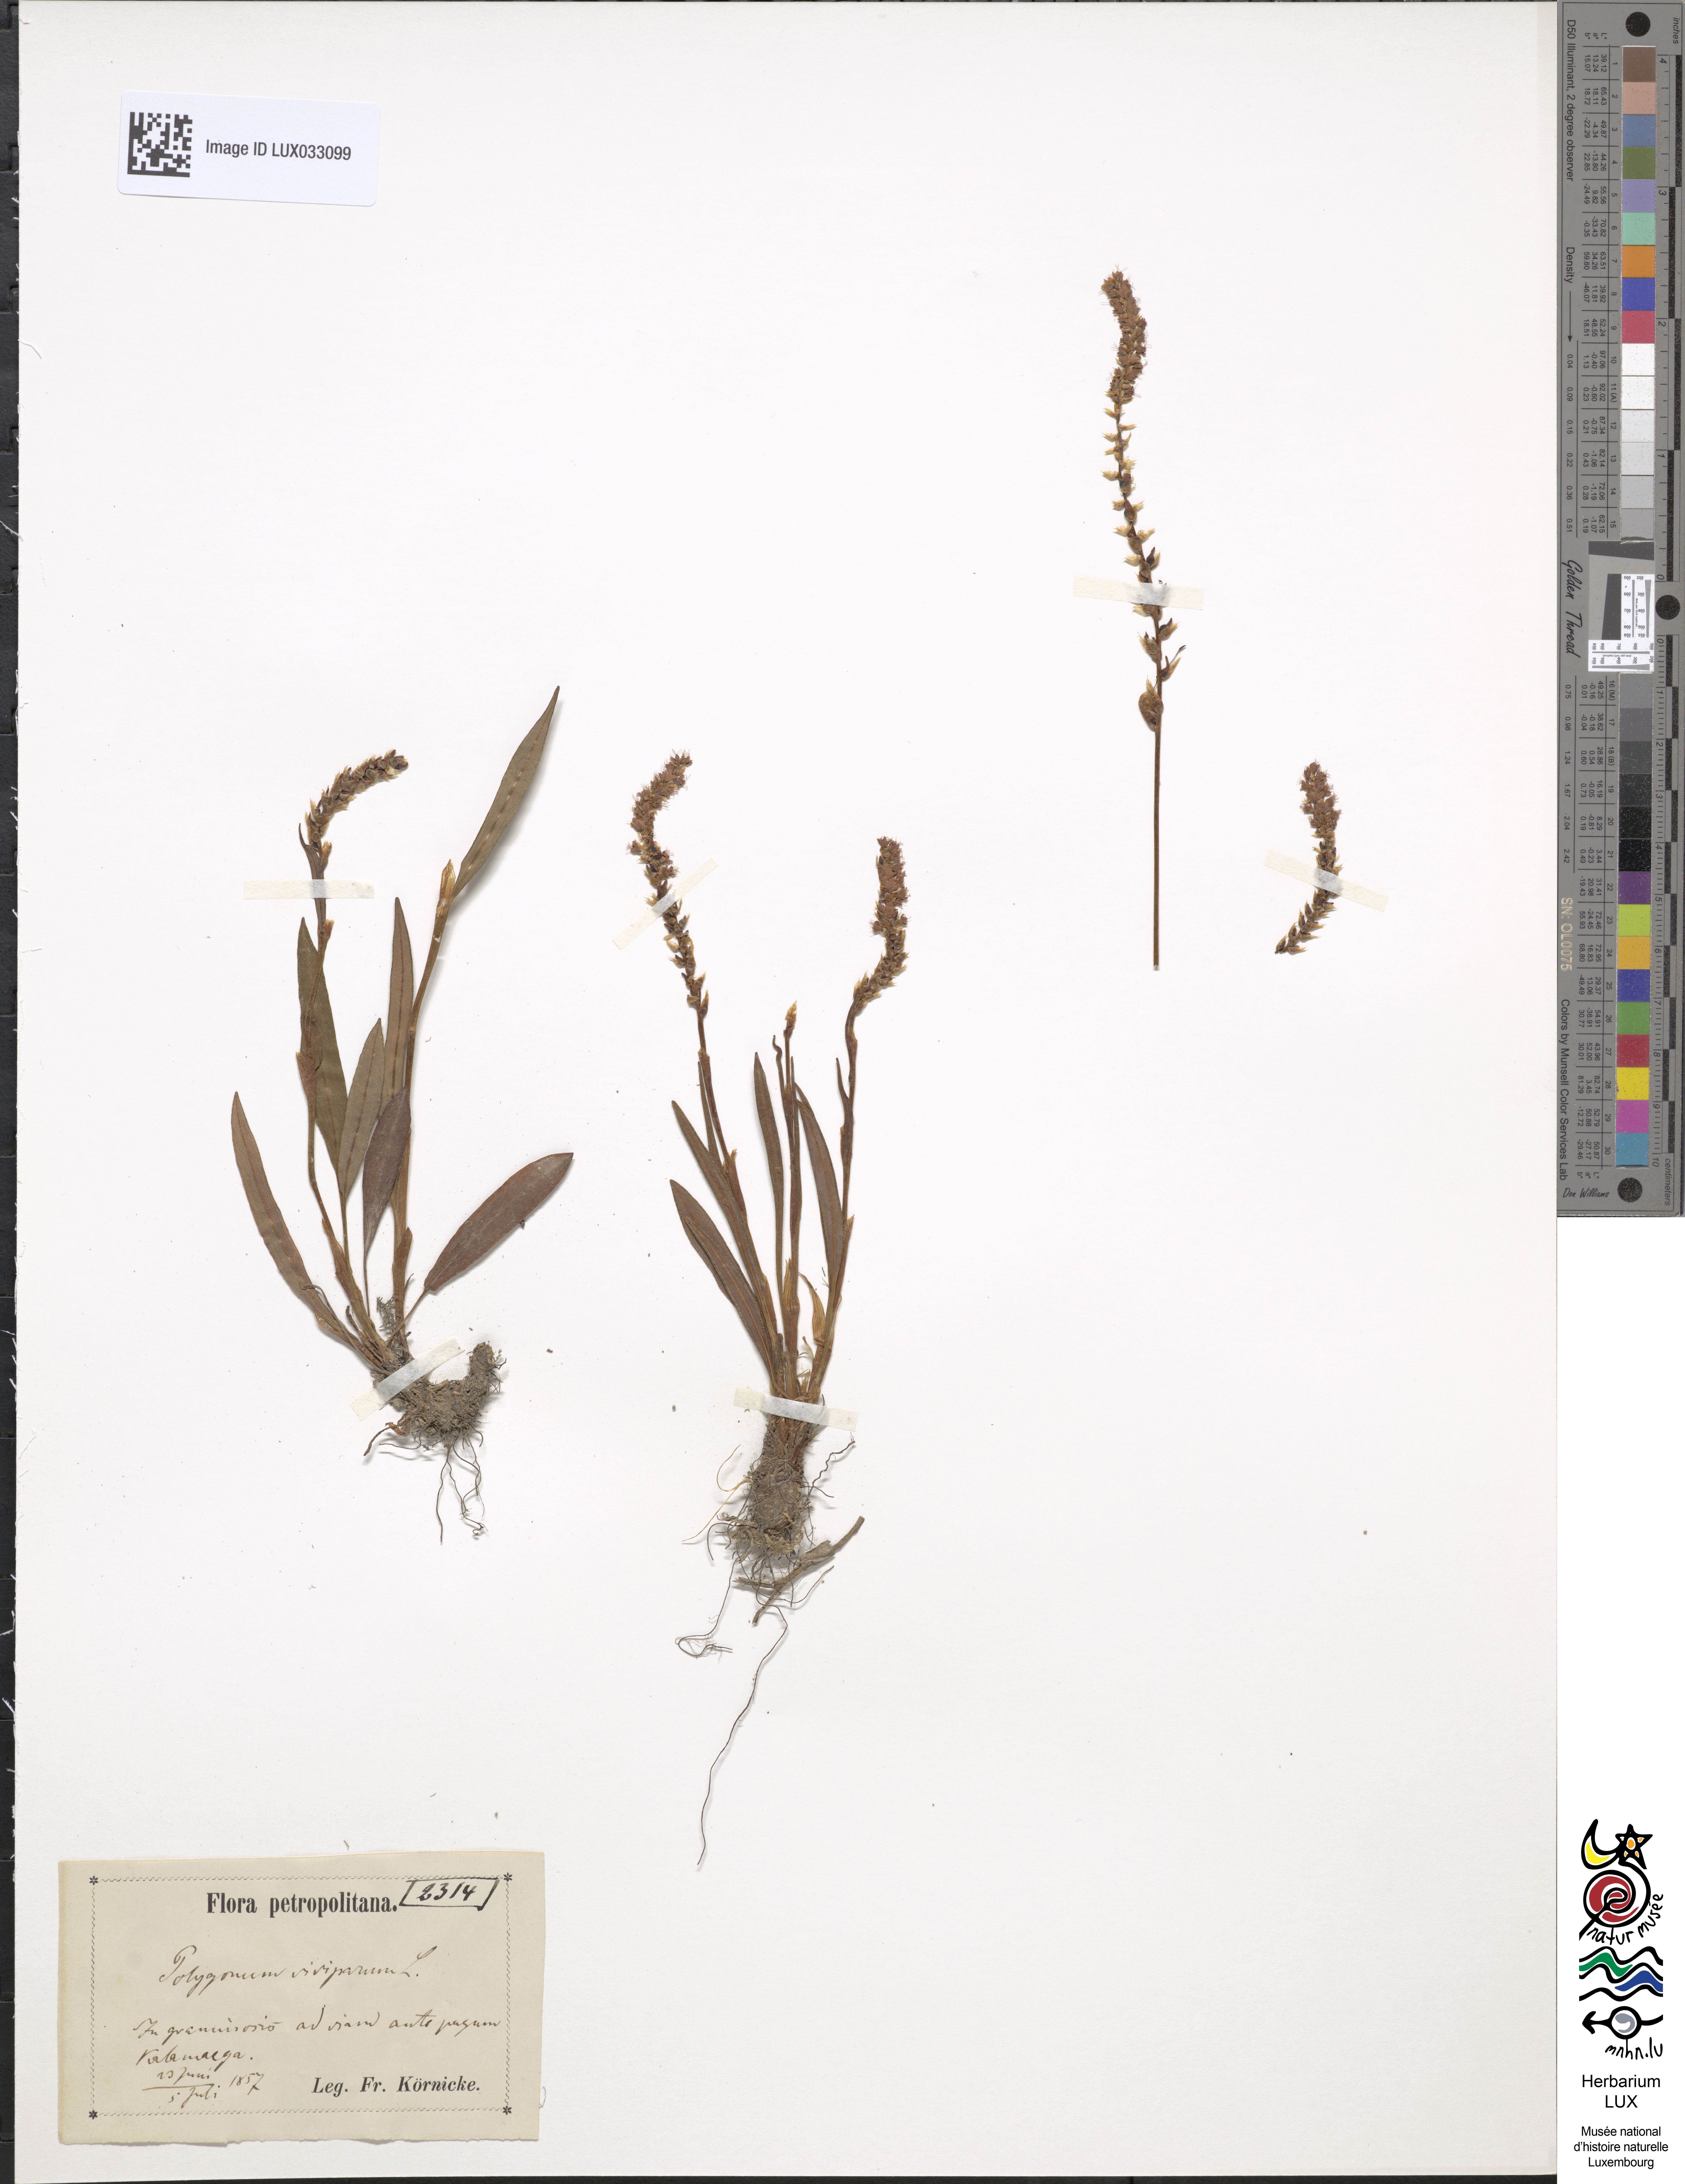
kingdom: Plantae
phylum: Tracheophyta
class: Magnoliopsida
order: Caryophyllales
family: Polygonaceae
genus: Bistorta
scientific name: Bistorta vivipara
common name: Alpine bistort
